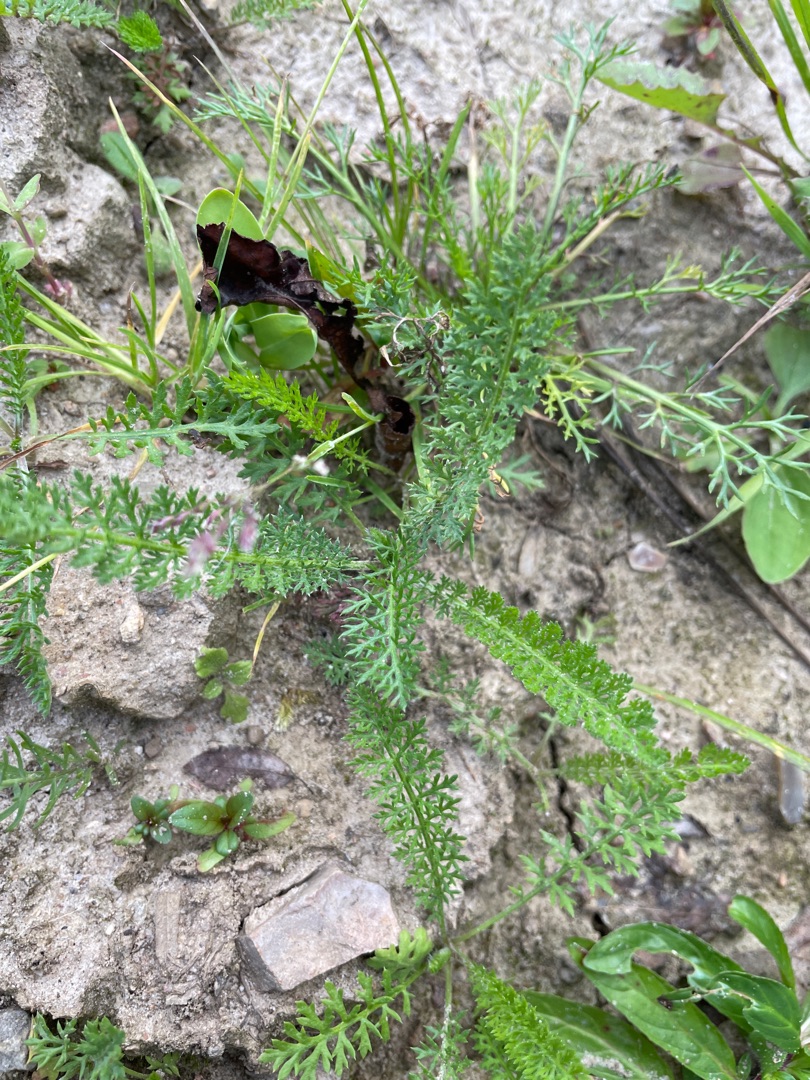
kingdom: Plantae
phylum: Tracheophyta
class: Magnoliopsida
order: Asterales
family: Asteraceae
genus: Achillea
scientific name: Achillea millefolium
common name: Almindelig røllike
